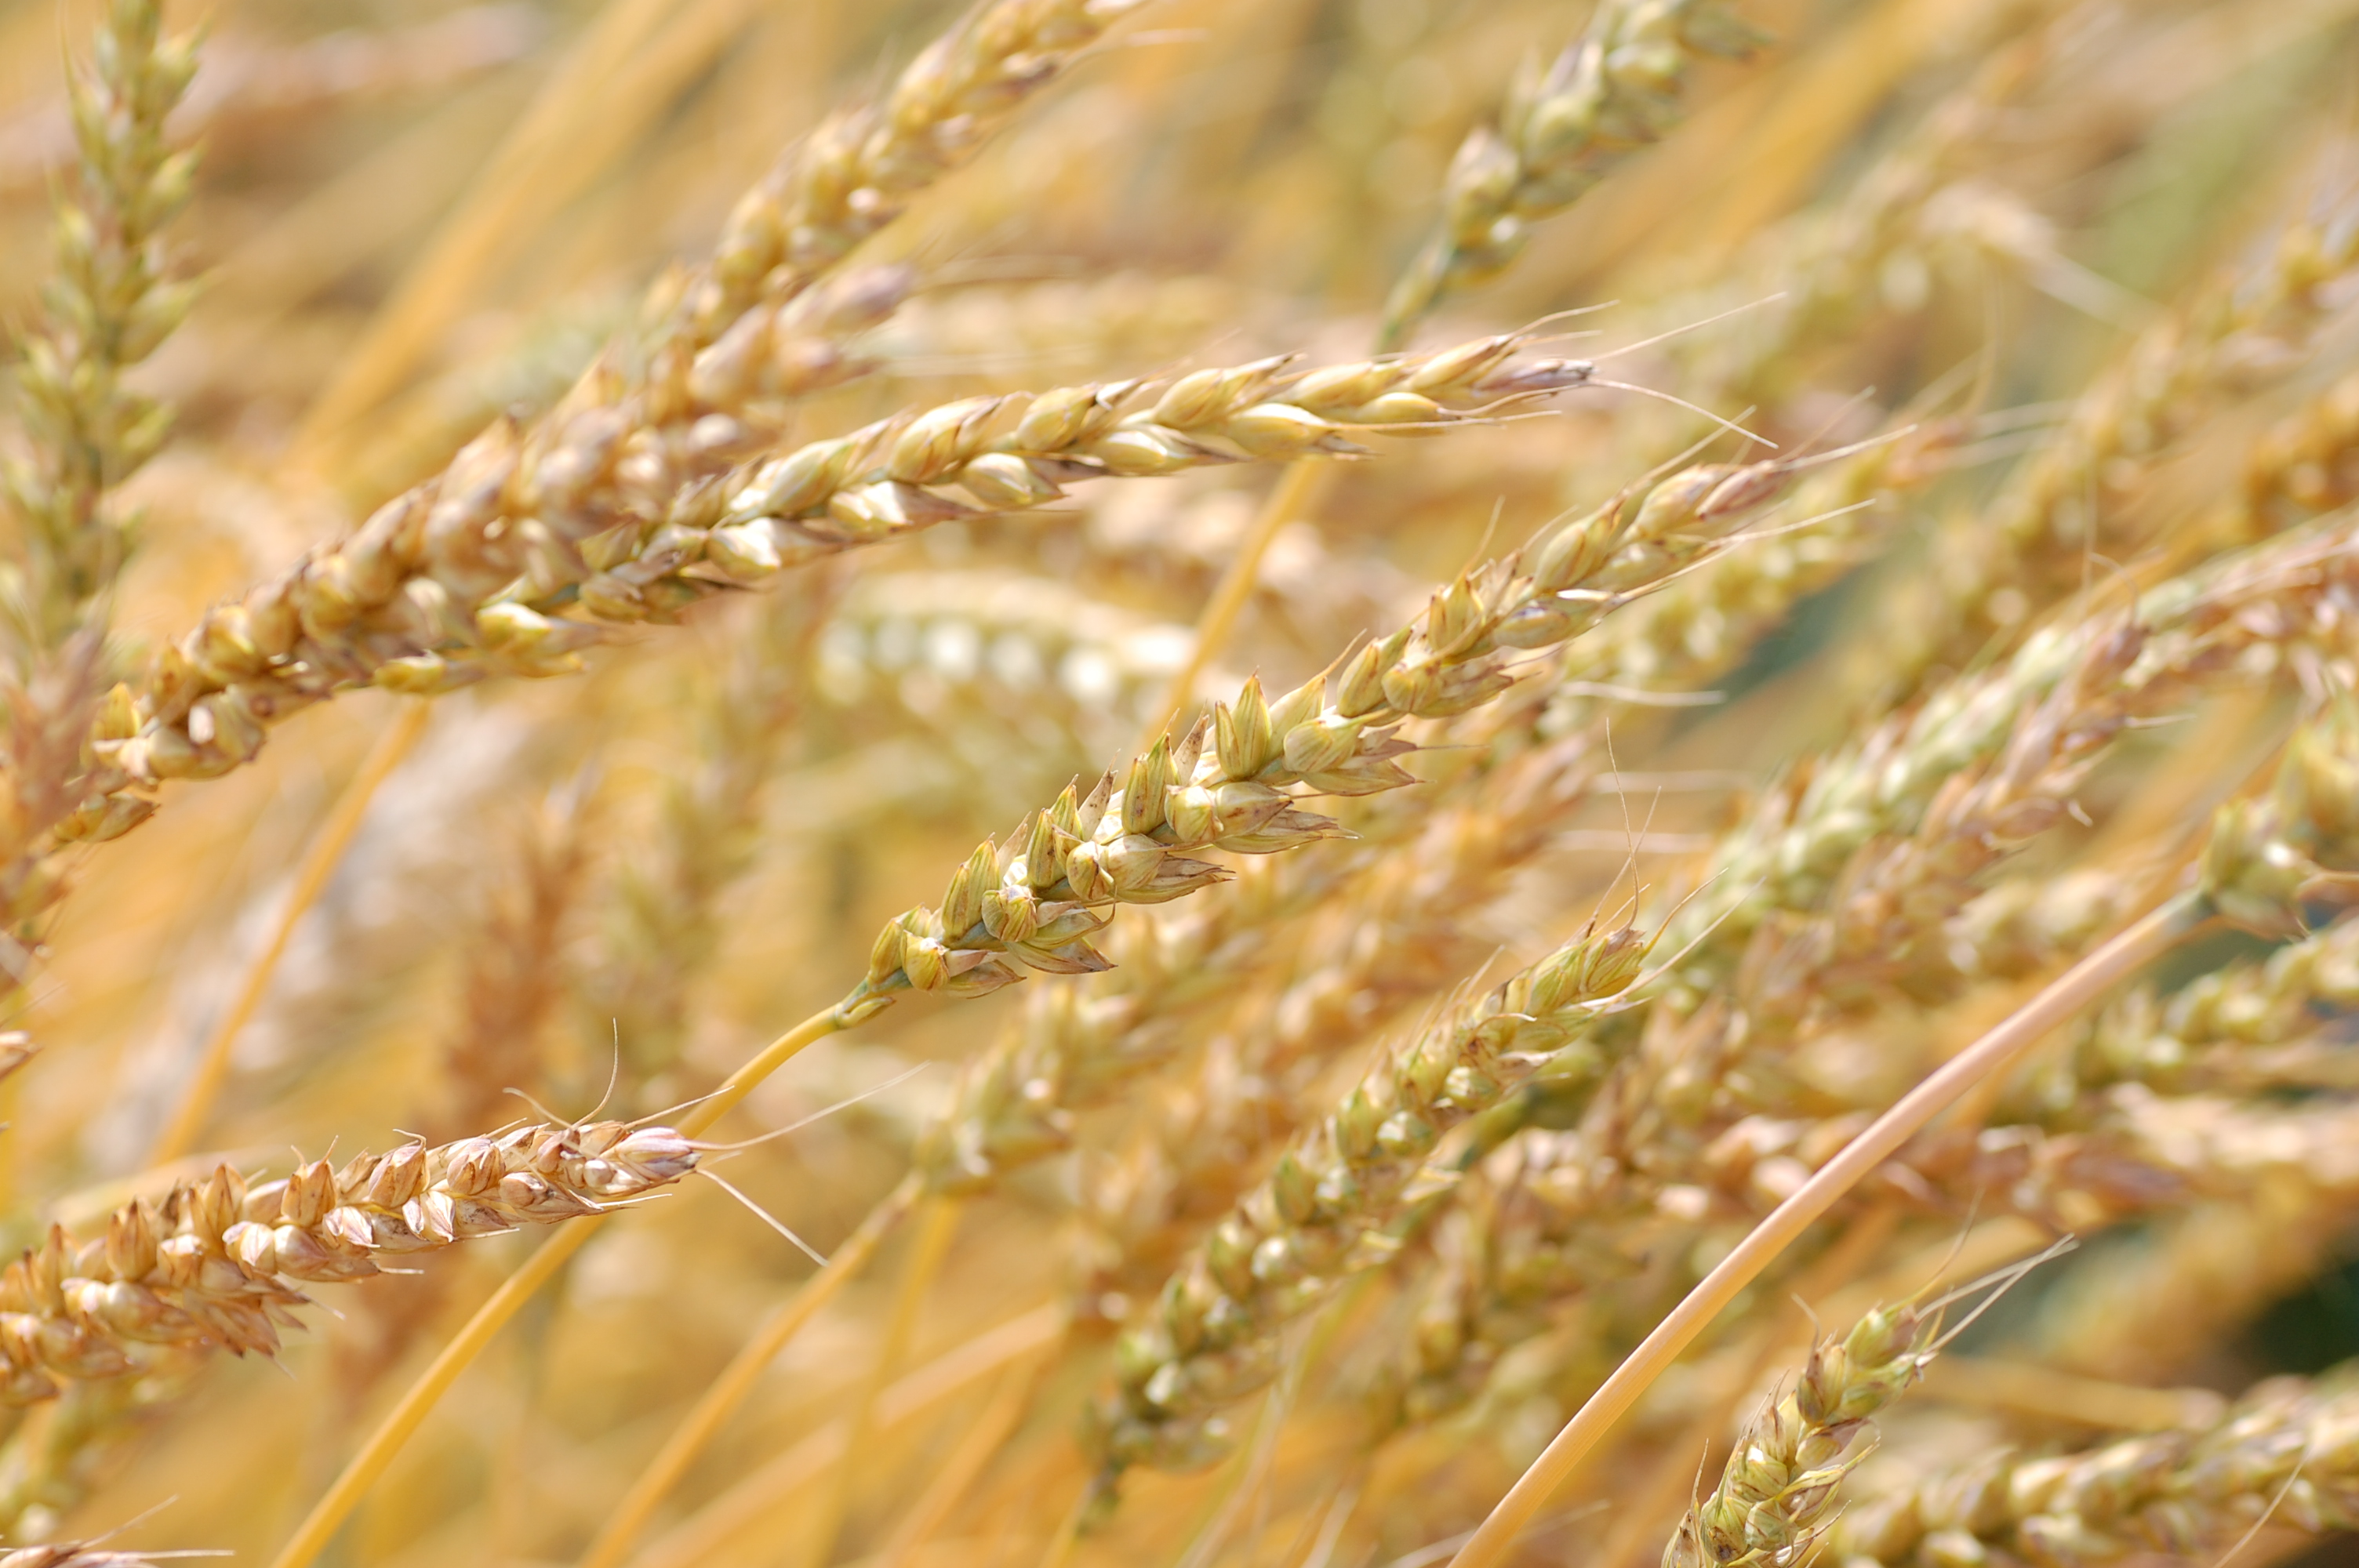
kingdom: Plantae
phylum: Tracheophyta
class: Liliopsida
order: Poales
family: Poaceae
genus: Triticum
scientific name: Triticum aestivum
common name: Common wheat
